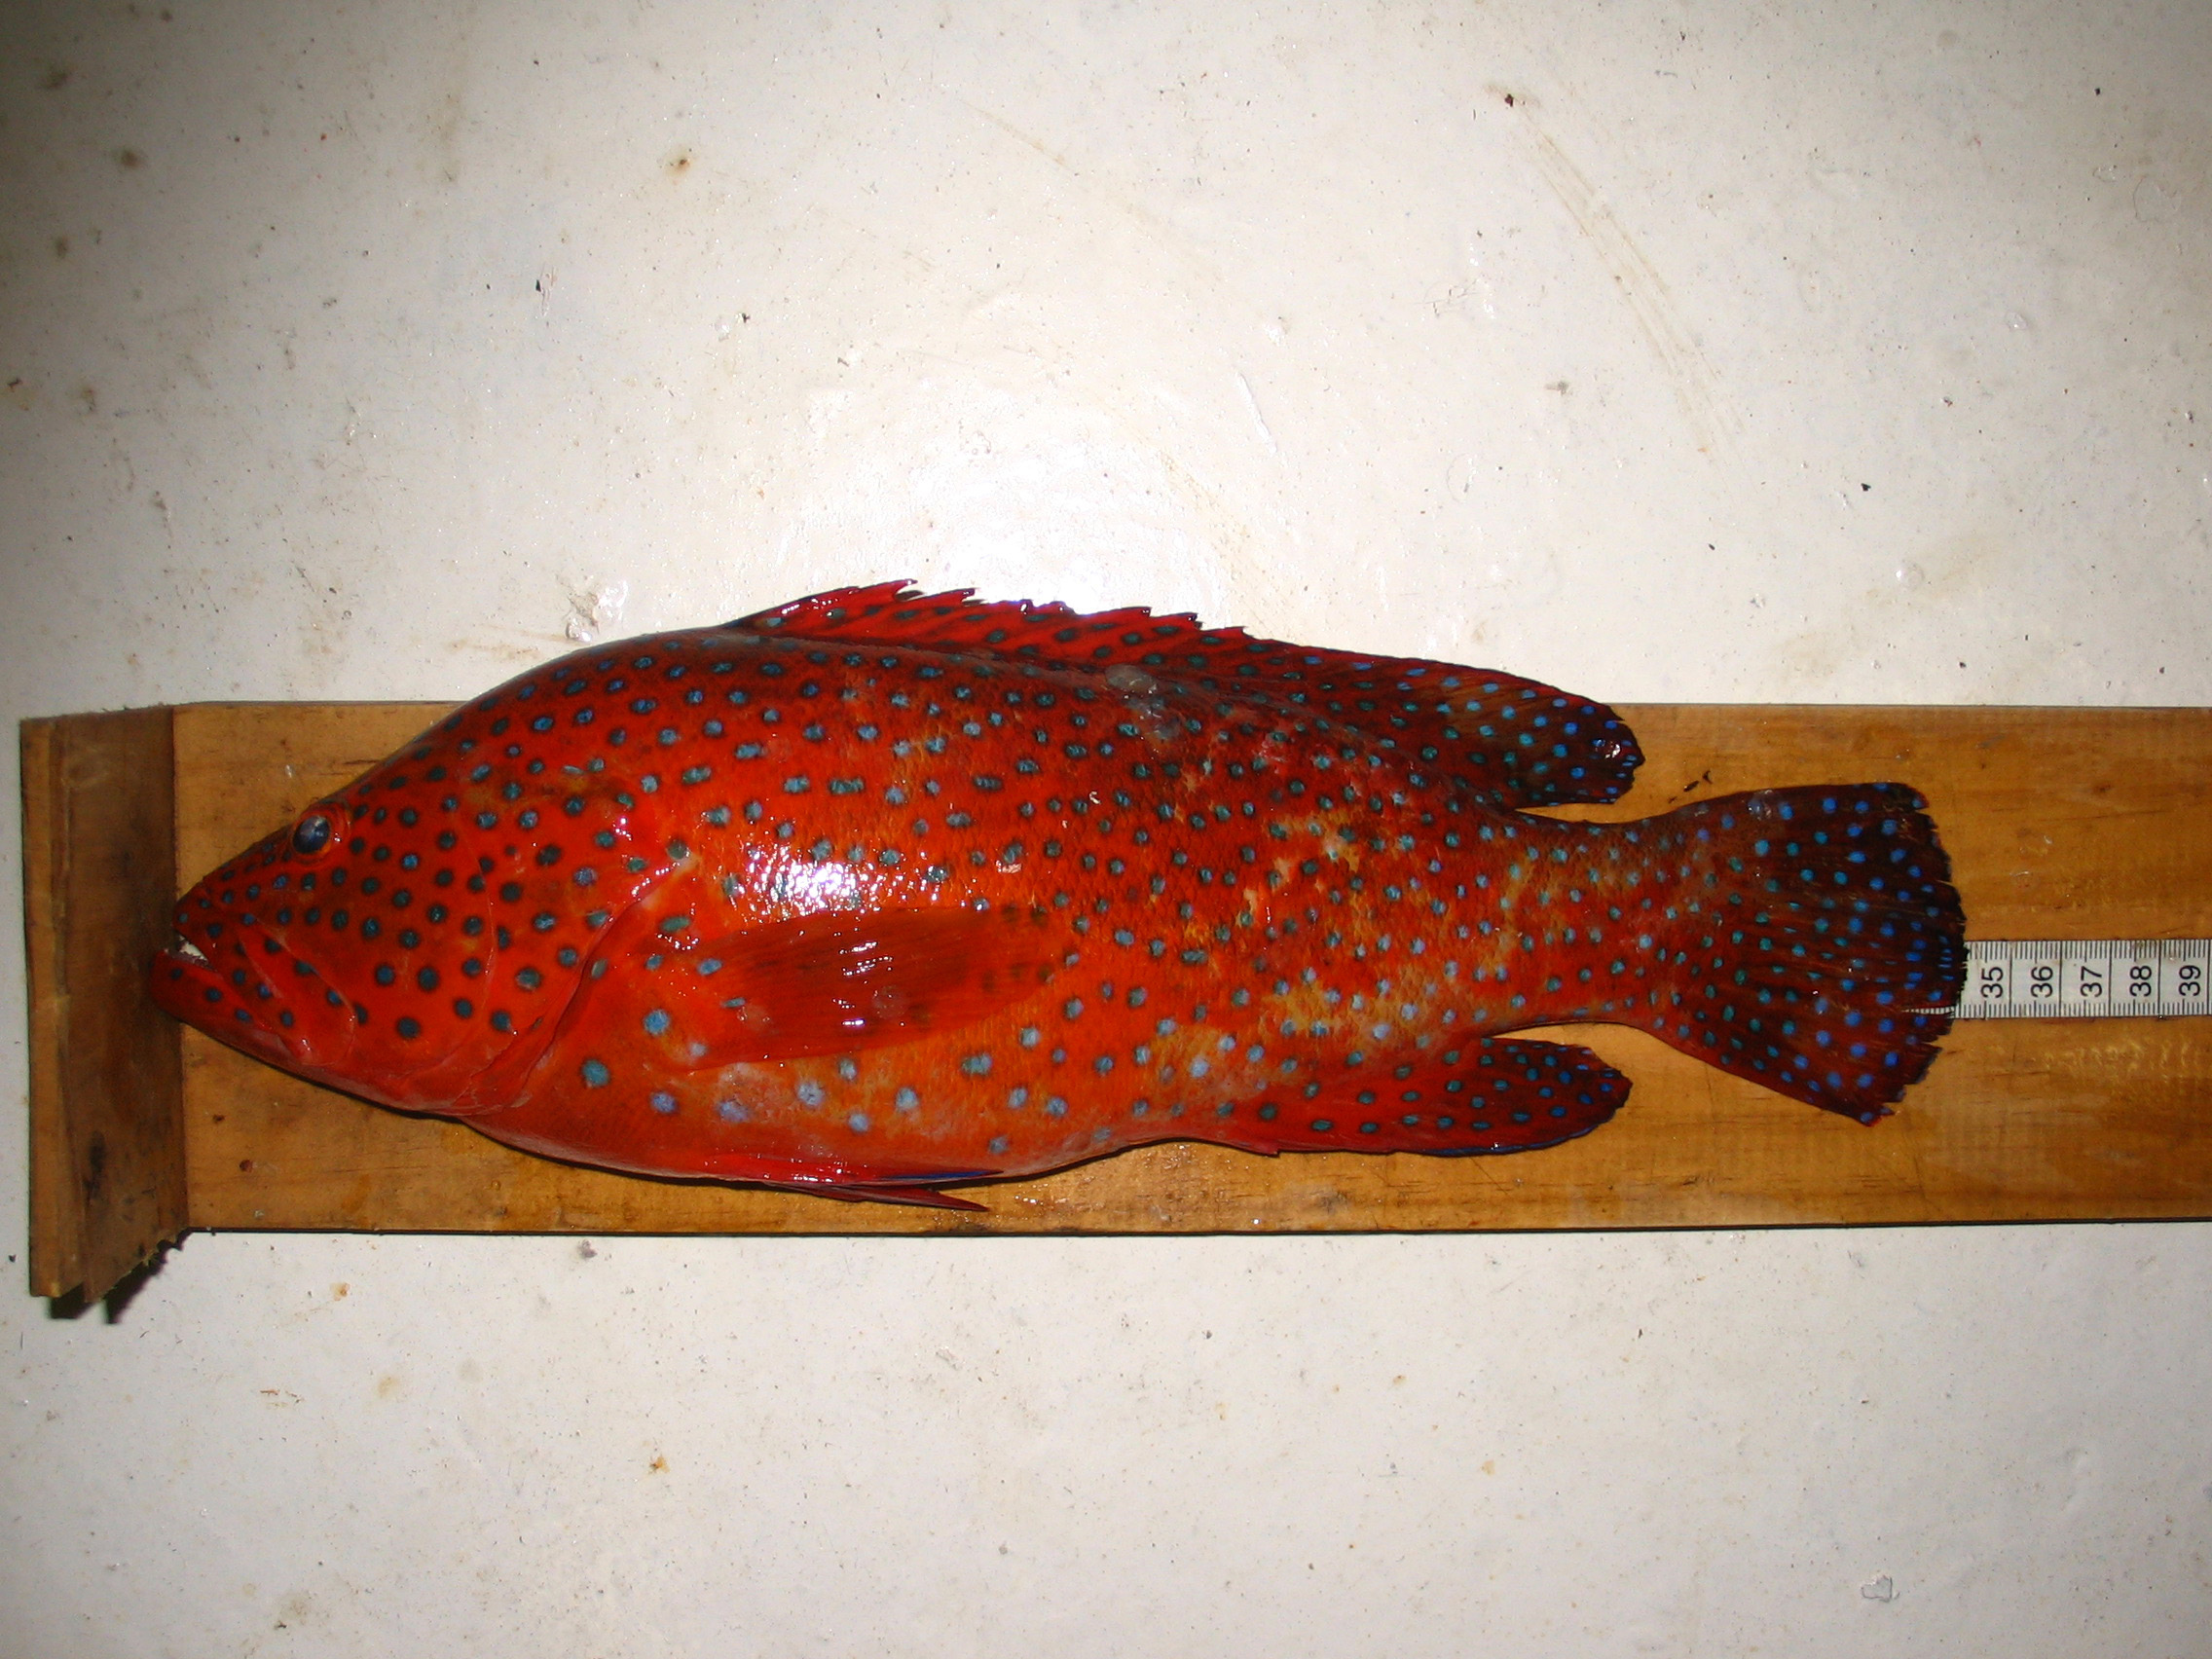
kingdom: Animalia
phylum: Chordata
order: Perciformes
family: Serranidae
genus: Cephalopholis
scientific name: Cephalopholis miniata
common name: Coral hind
